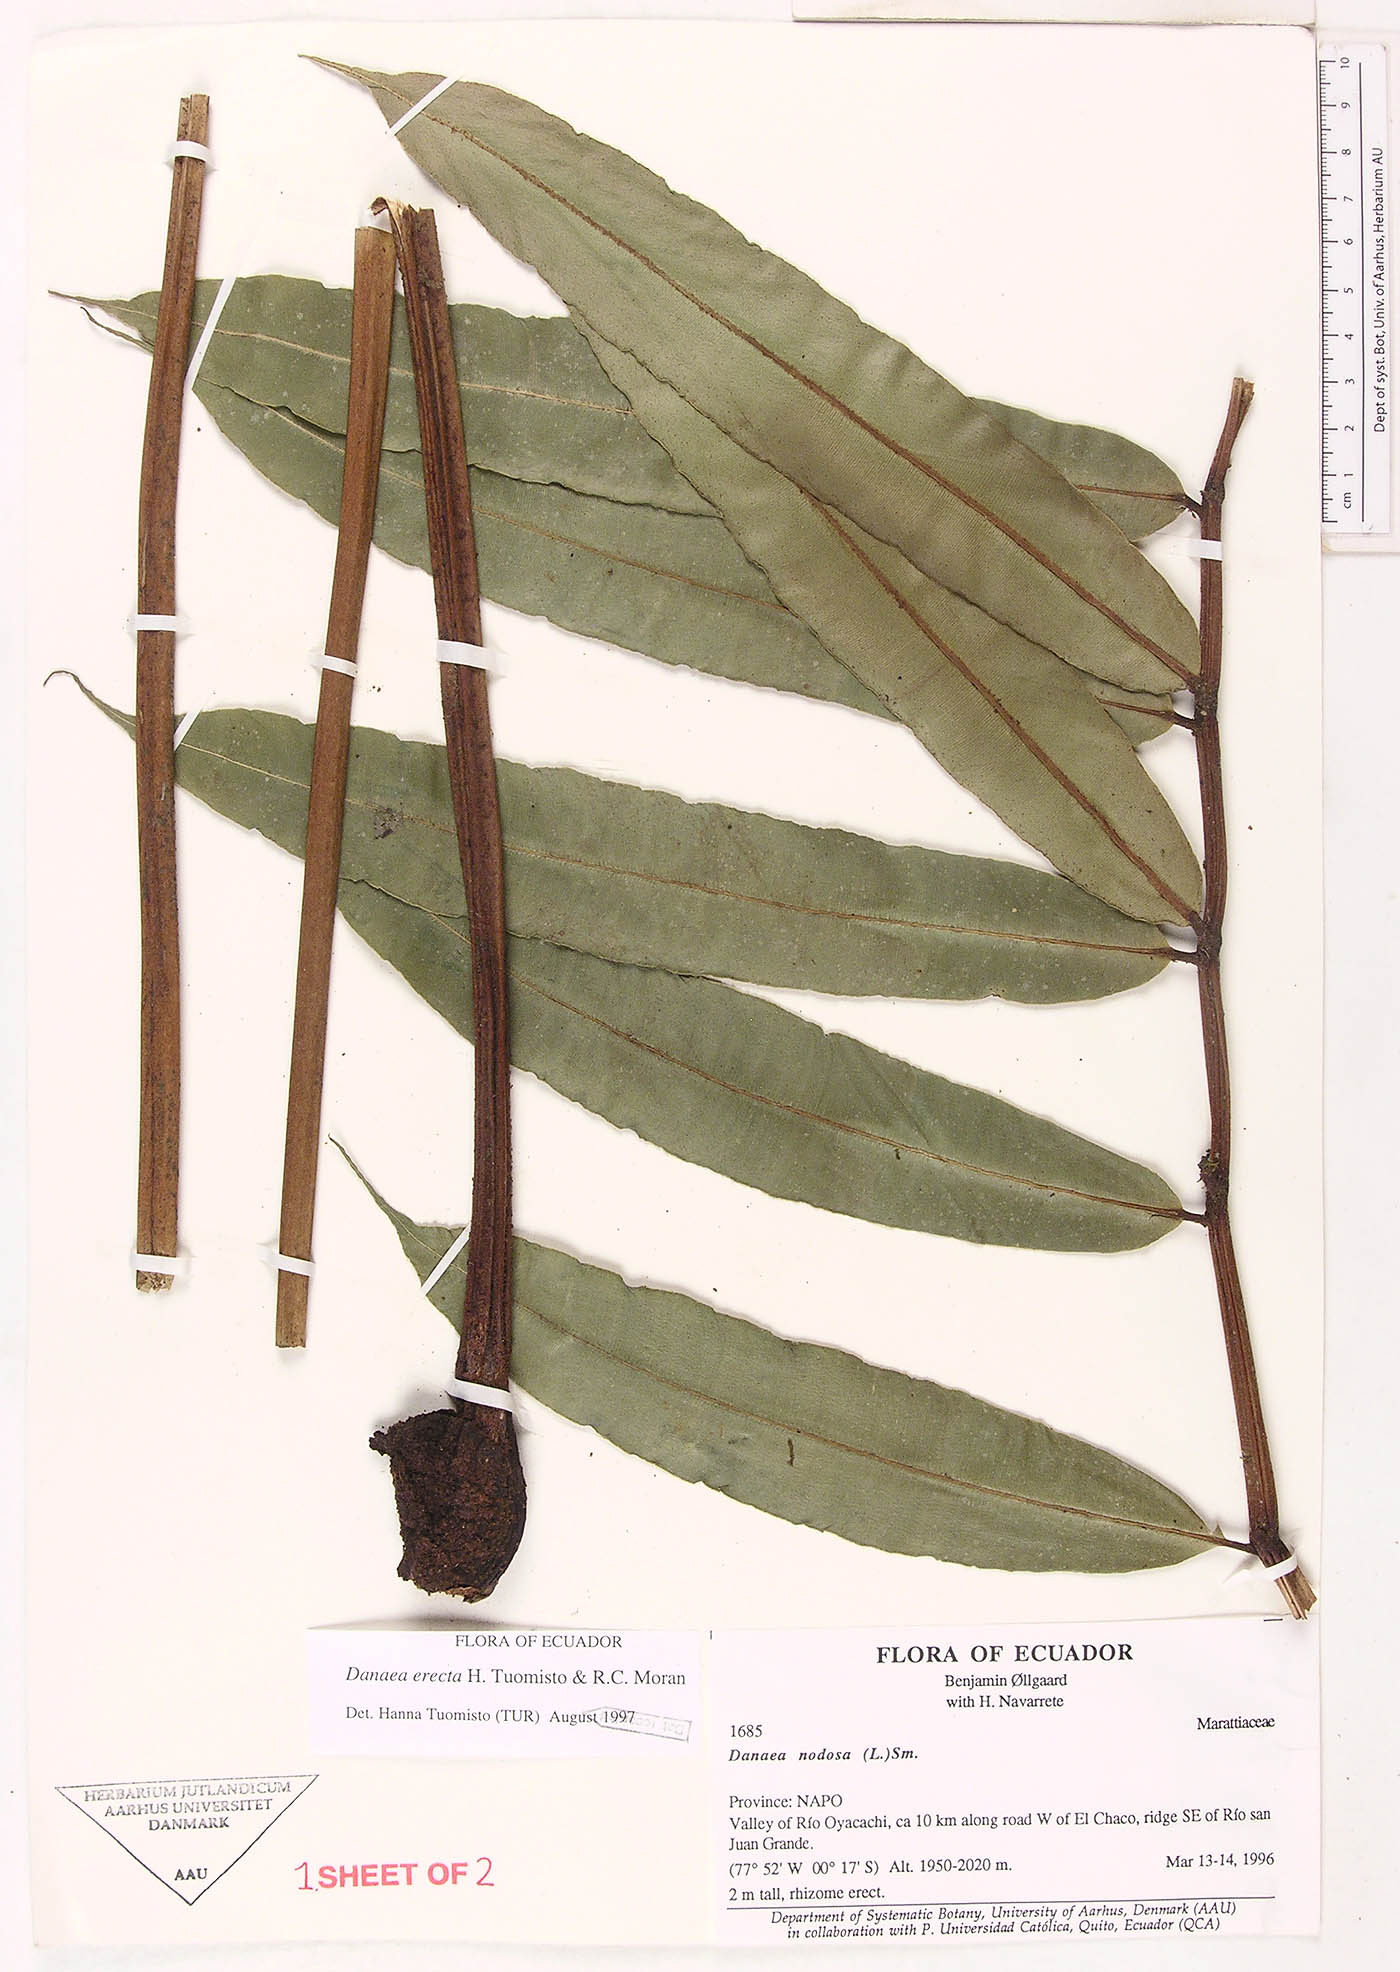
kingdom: Plantae
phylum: Tracheophyta
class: Polypodiopsida
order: Marattiales
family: Marattiaceae
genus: Danaea
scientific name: Danaea nodosa
